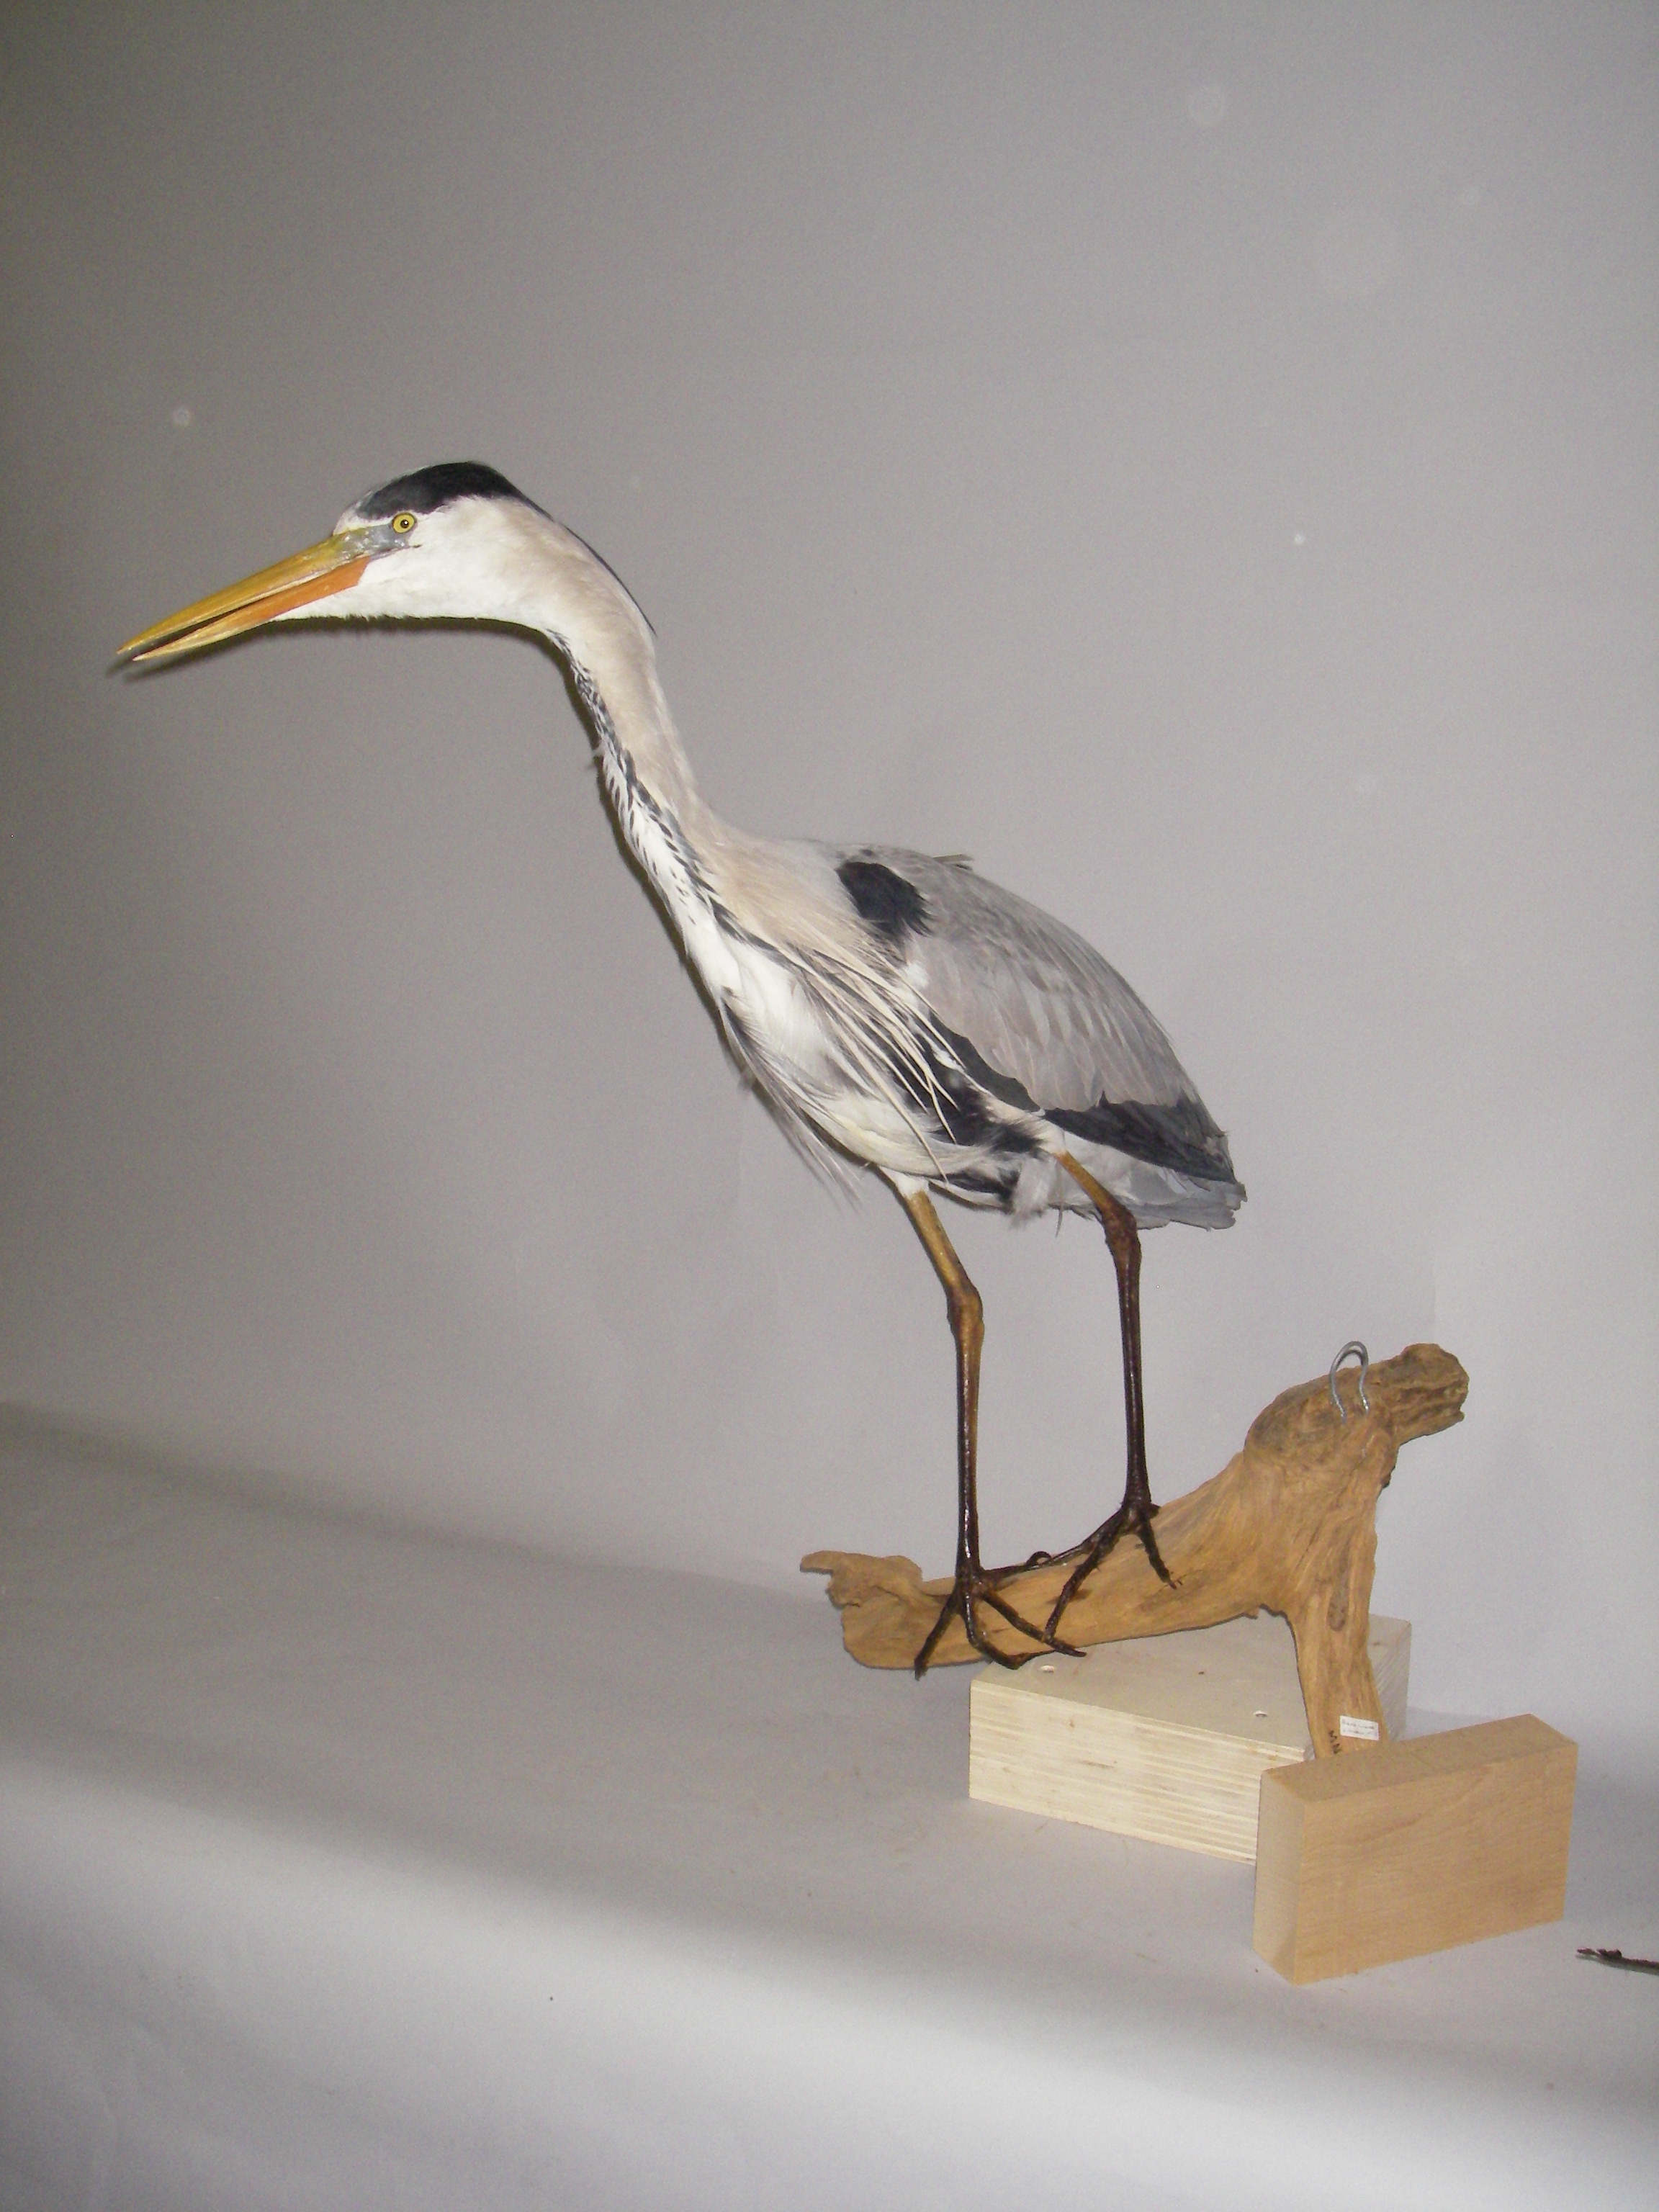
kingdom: Animalia
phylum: Chordata
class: Aves
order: Pelecaniformes
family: Ardeidae
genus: Ardea
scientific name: Ardea cinerea
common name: Grey heron
